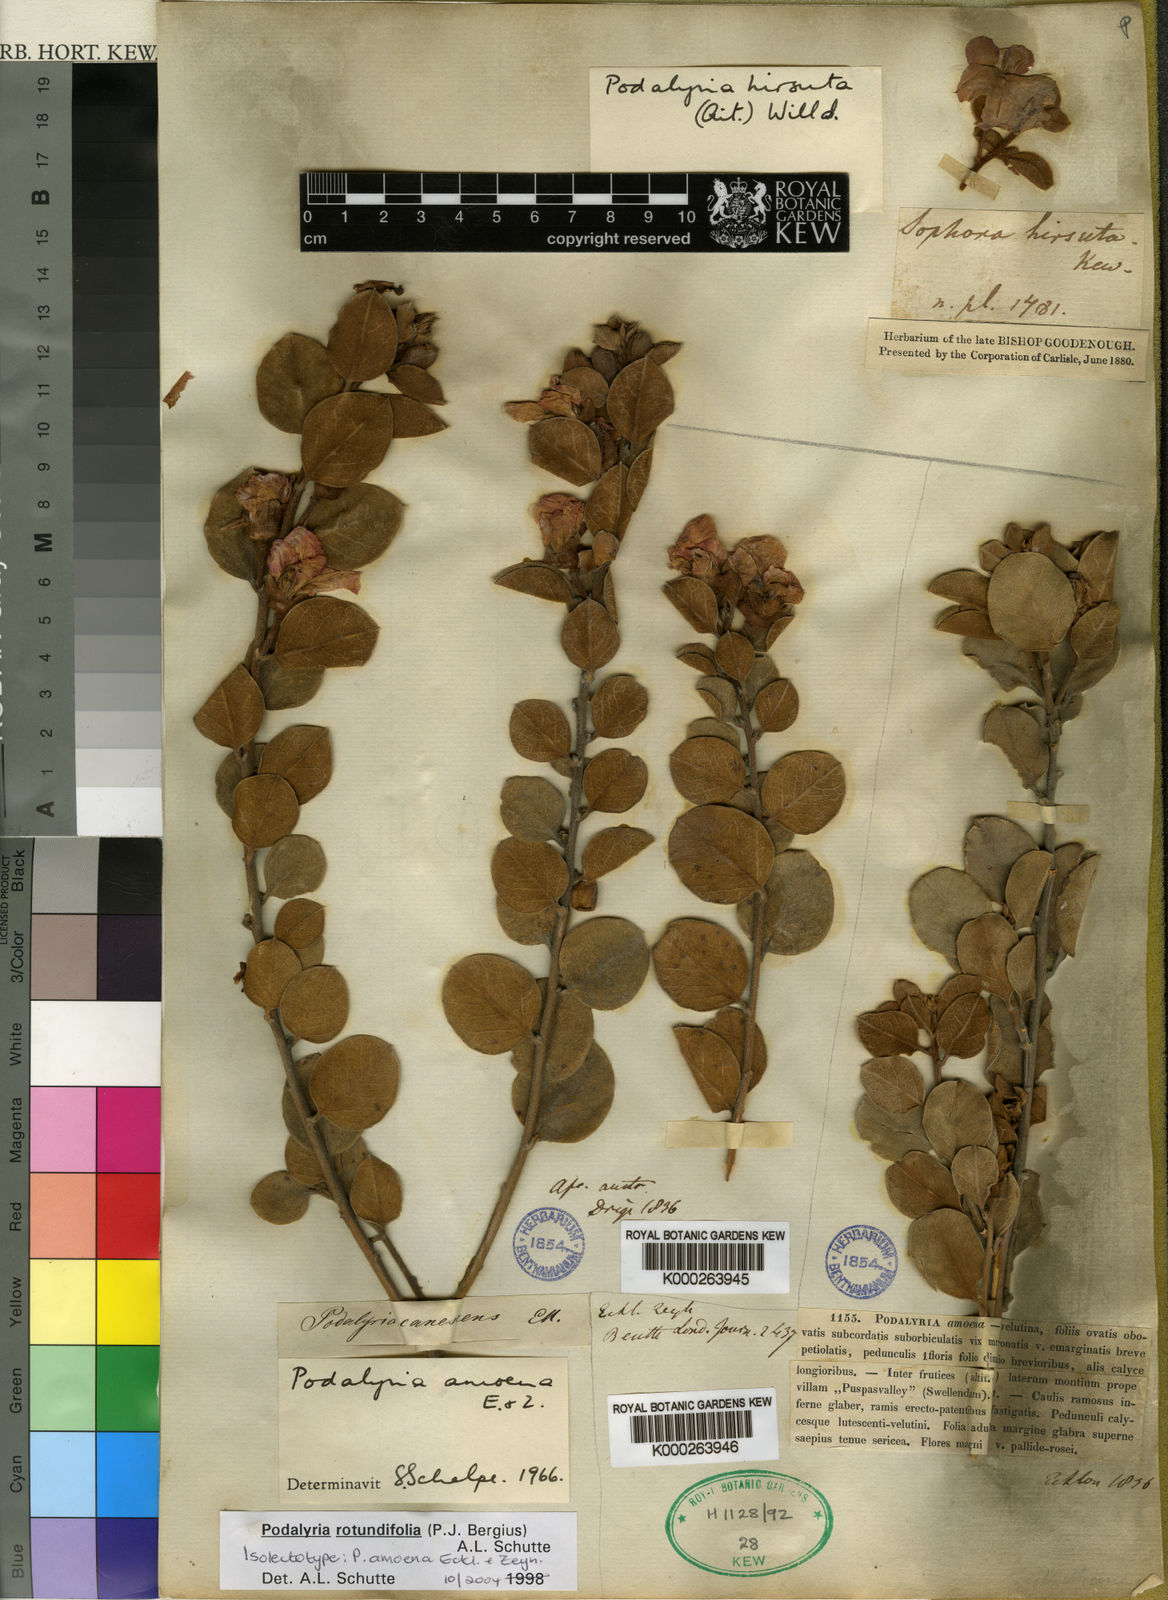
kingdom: Plantae
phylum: Tracheophyta
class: Magnoliopsida
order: Fabales
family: Fabaceae
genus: Podalyria
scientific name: Podalyria
